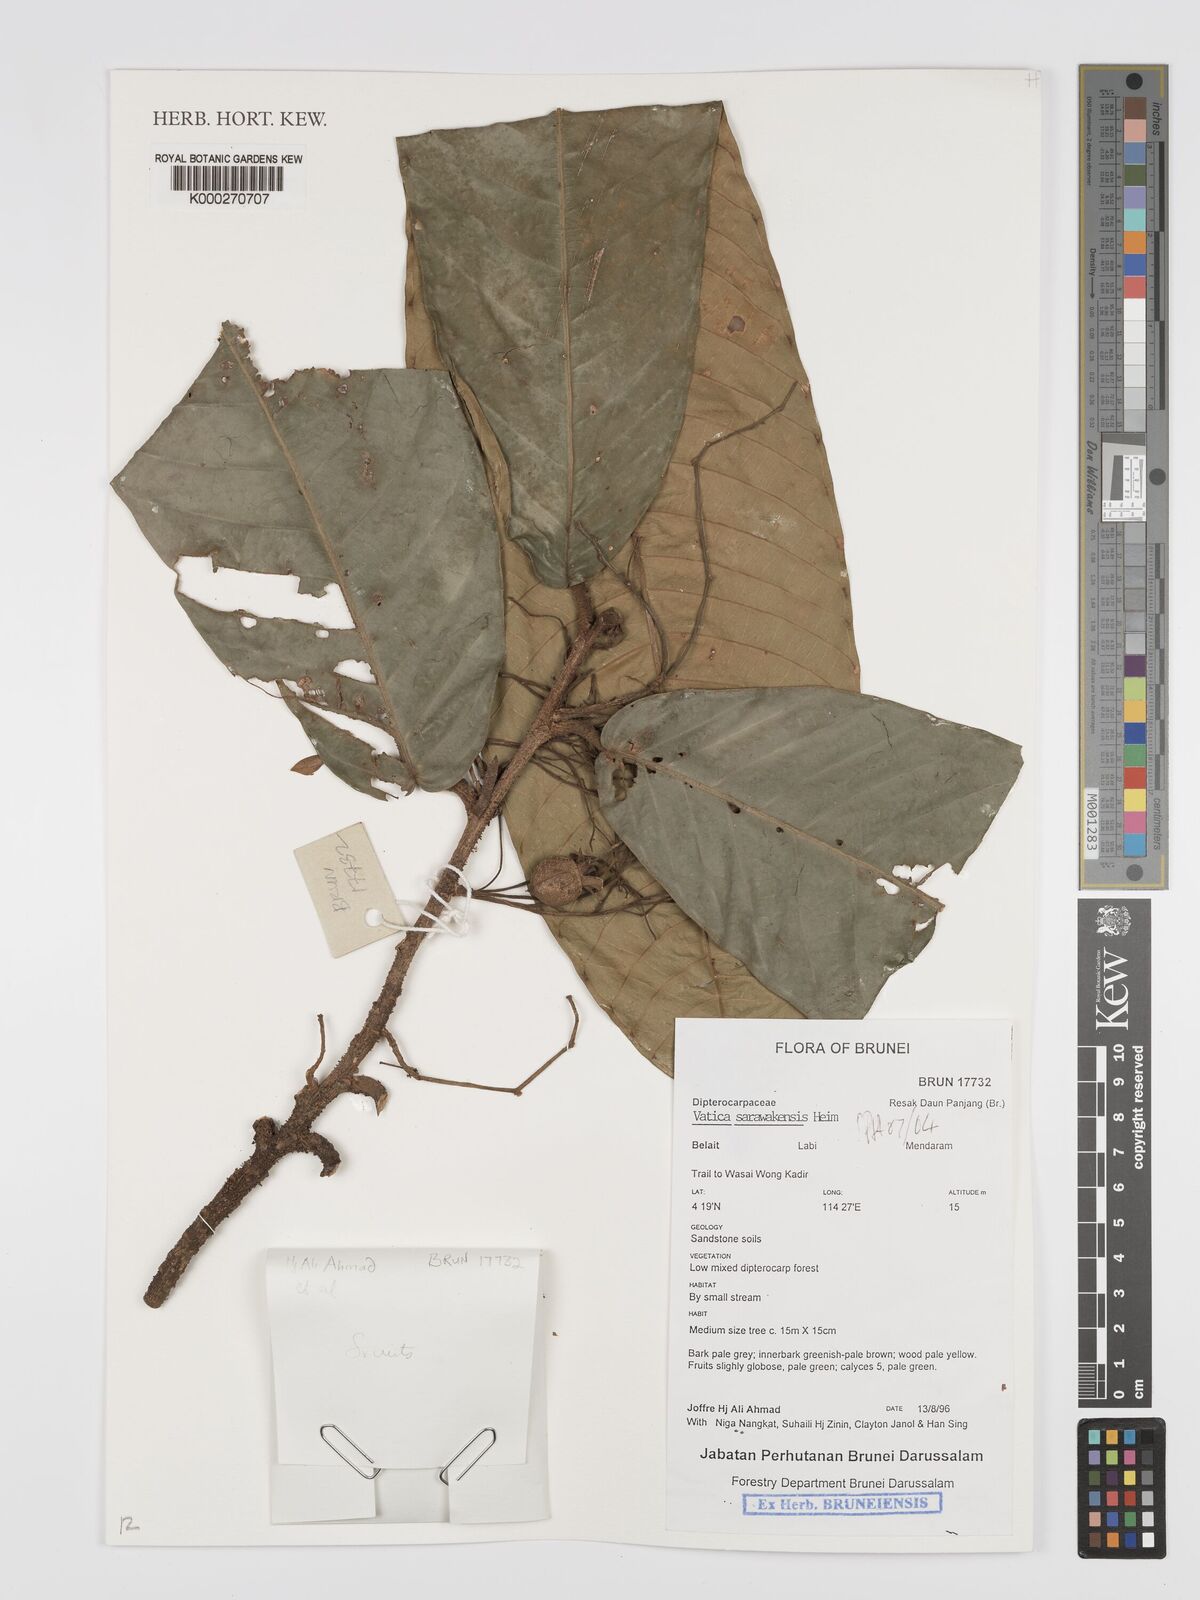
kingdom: Plantae
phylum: Tracheophyta
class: Magnoliopsida
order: Malvales
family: Dipterocarpaceae
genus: Vatica
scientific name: Vatica sarawakensis
